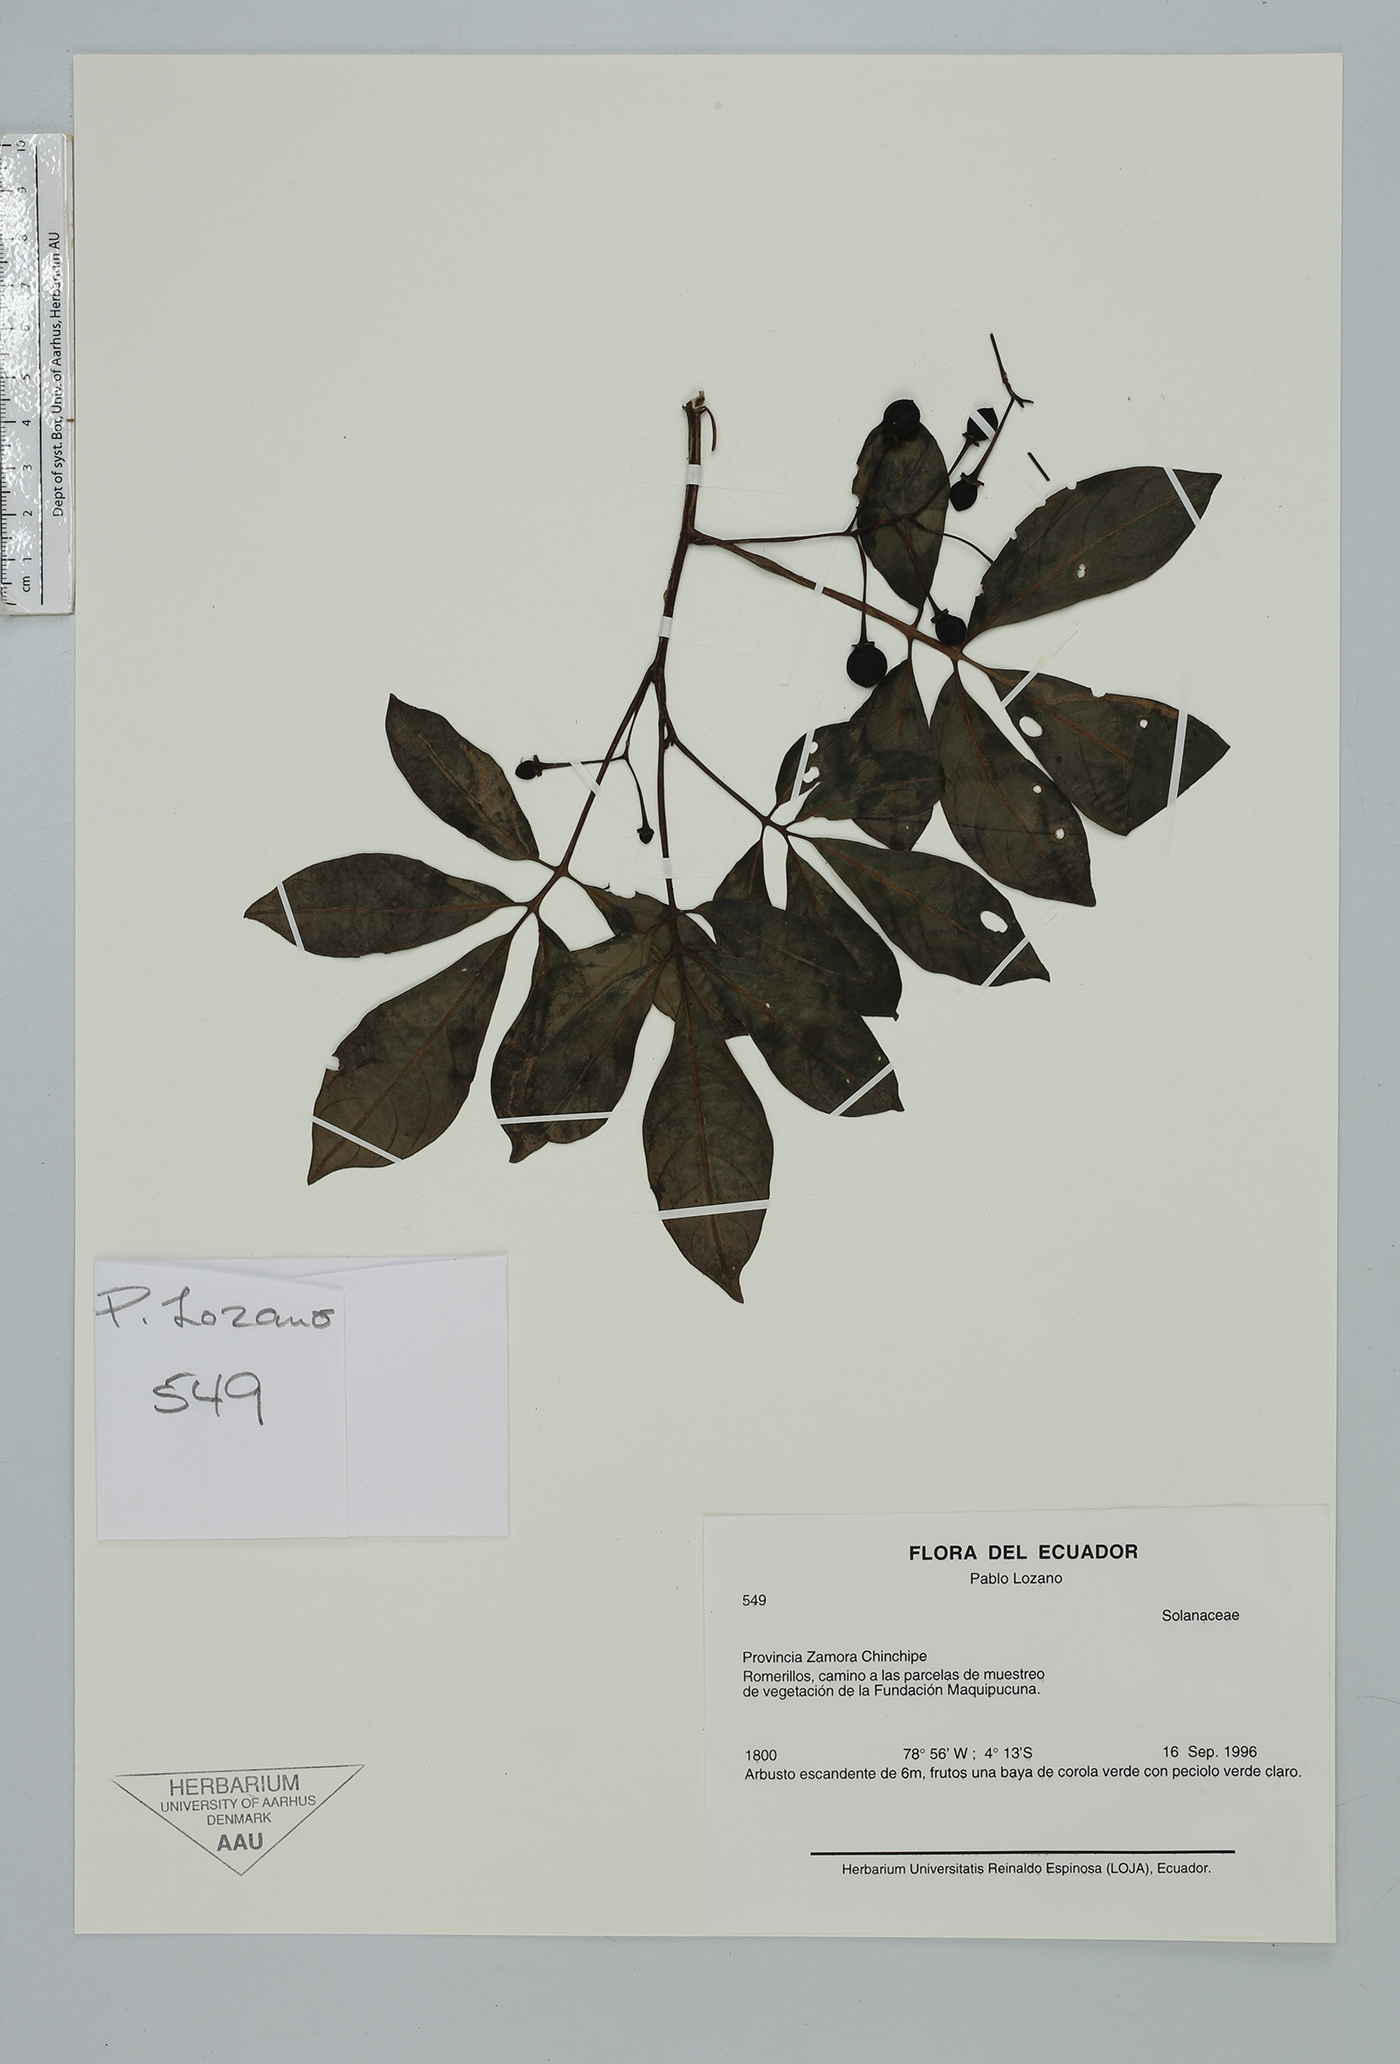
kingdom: Plantae
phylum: Tracheophyta
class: Magnoliopsida
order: Solanales
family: Solanaceae
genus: Solanum
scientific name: Solanum
